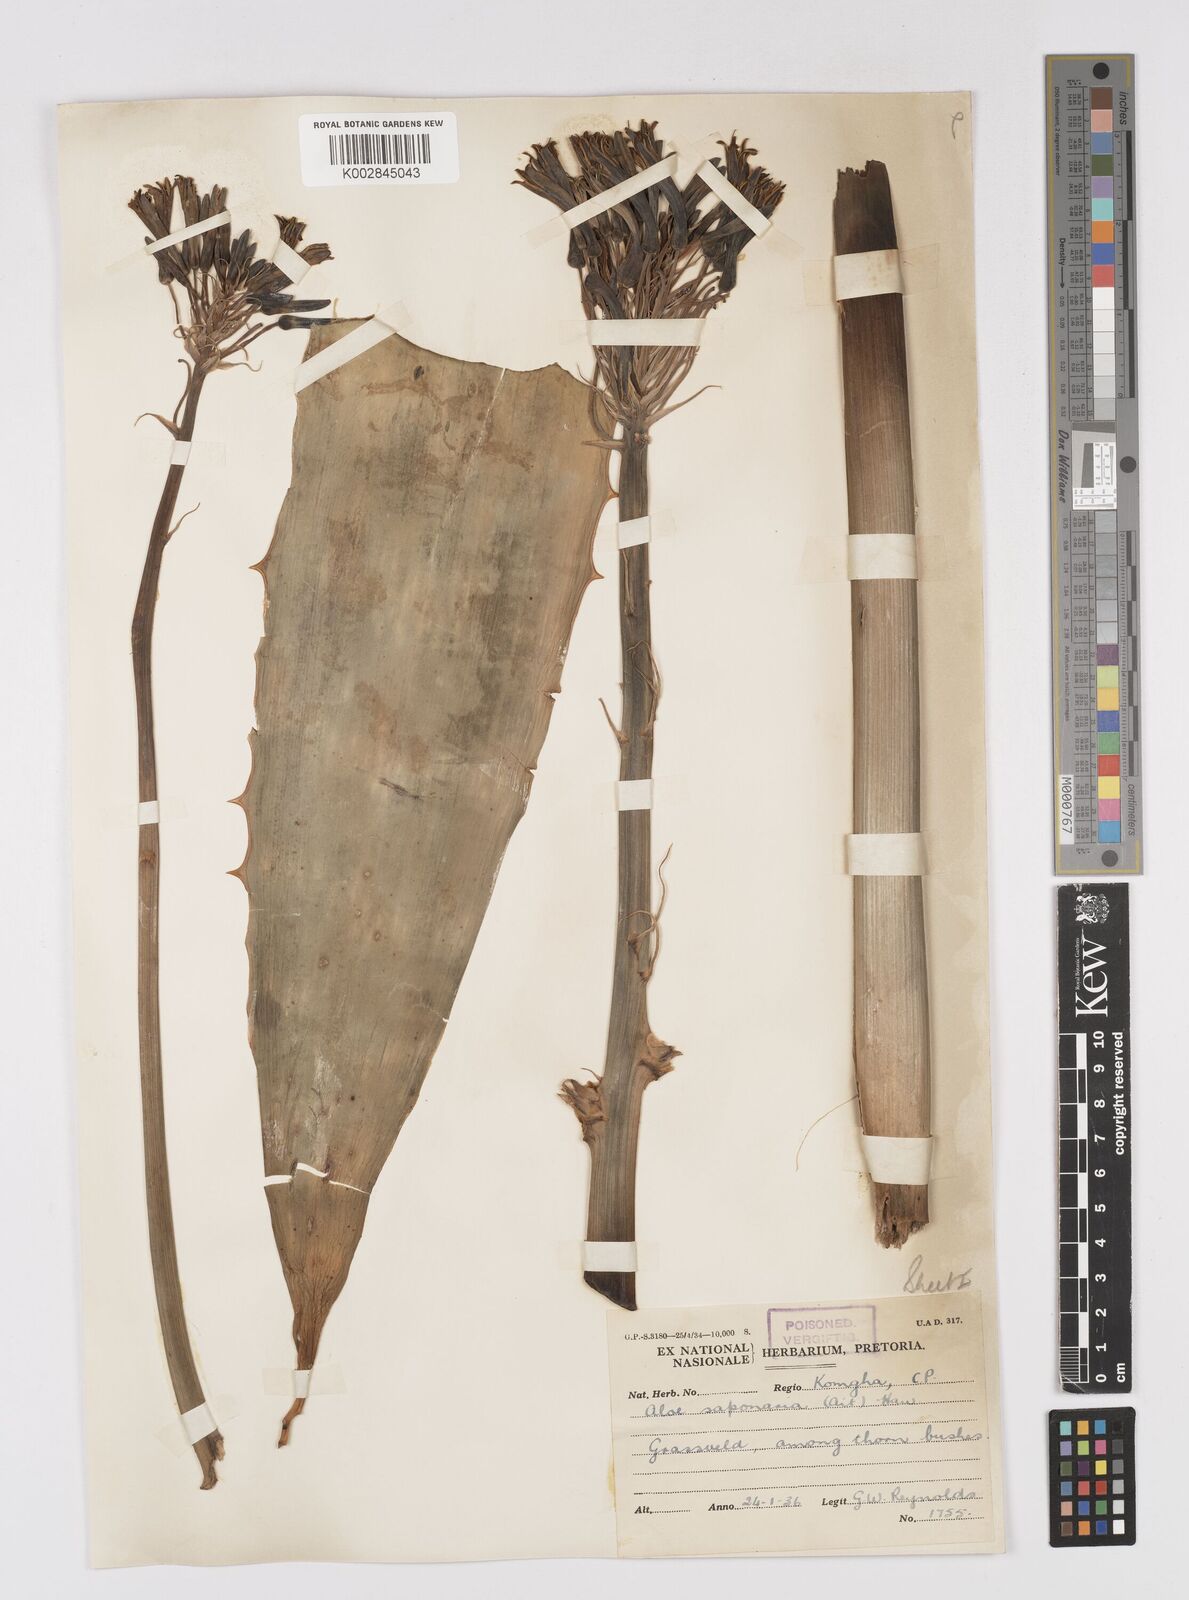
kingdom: Plantae
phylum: Tracheophyta
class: Liliopsida
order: Asparagales
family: Asphodelaceae
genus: Aloe
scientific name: Aloe microstigma
